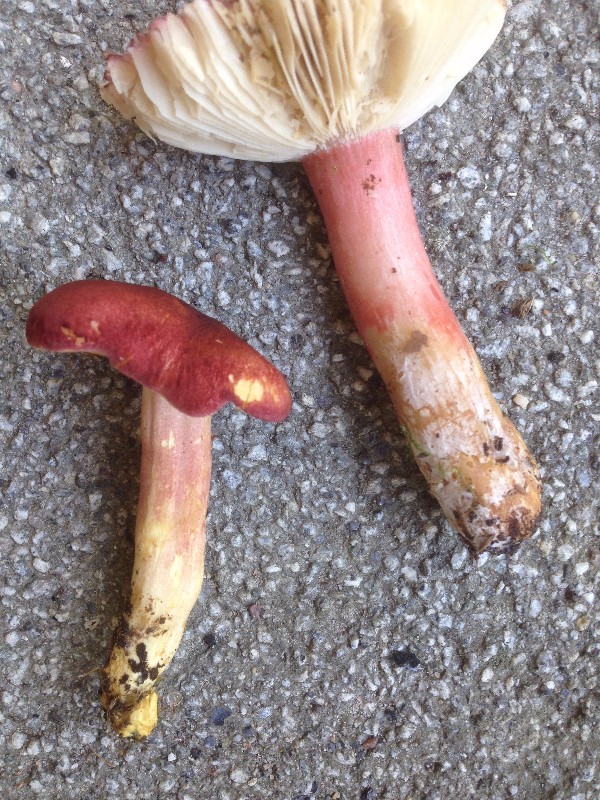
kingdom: Fungi
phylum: Basidiomycota
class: Agaricomycetes
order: Russulales
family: Russulaceae
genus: Russula
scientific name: Russula queletii
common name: Quélets skørhat
